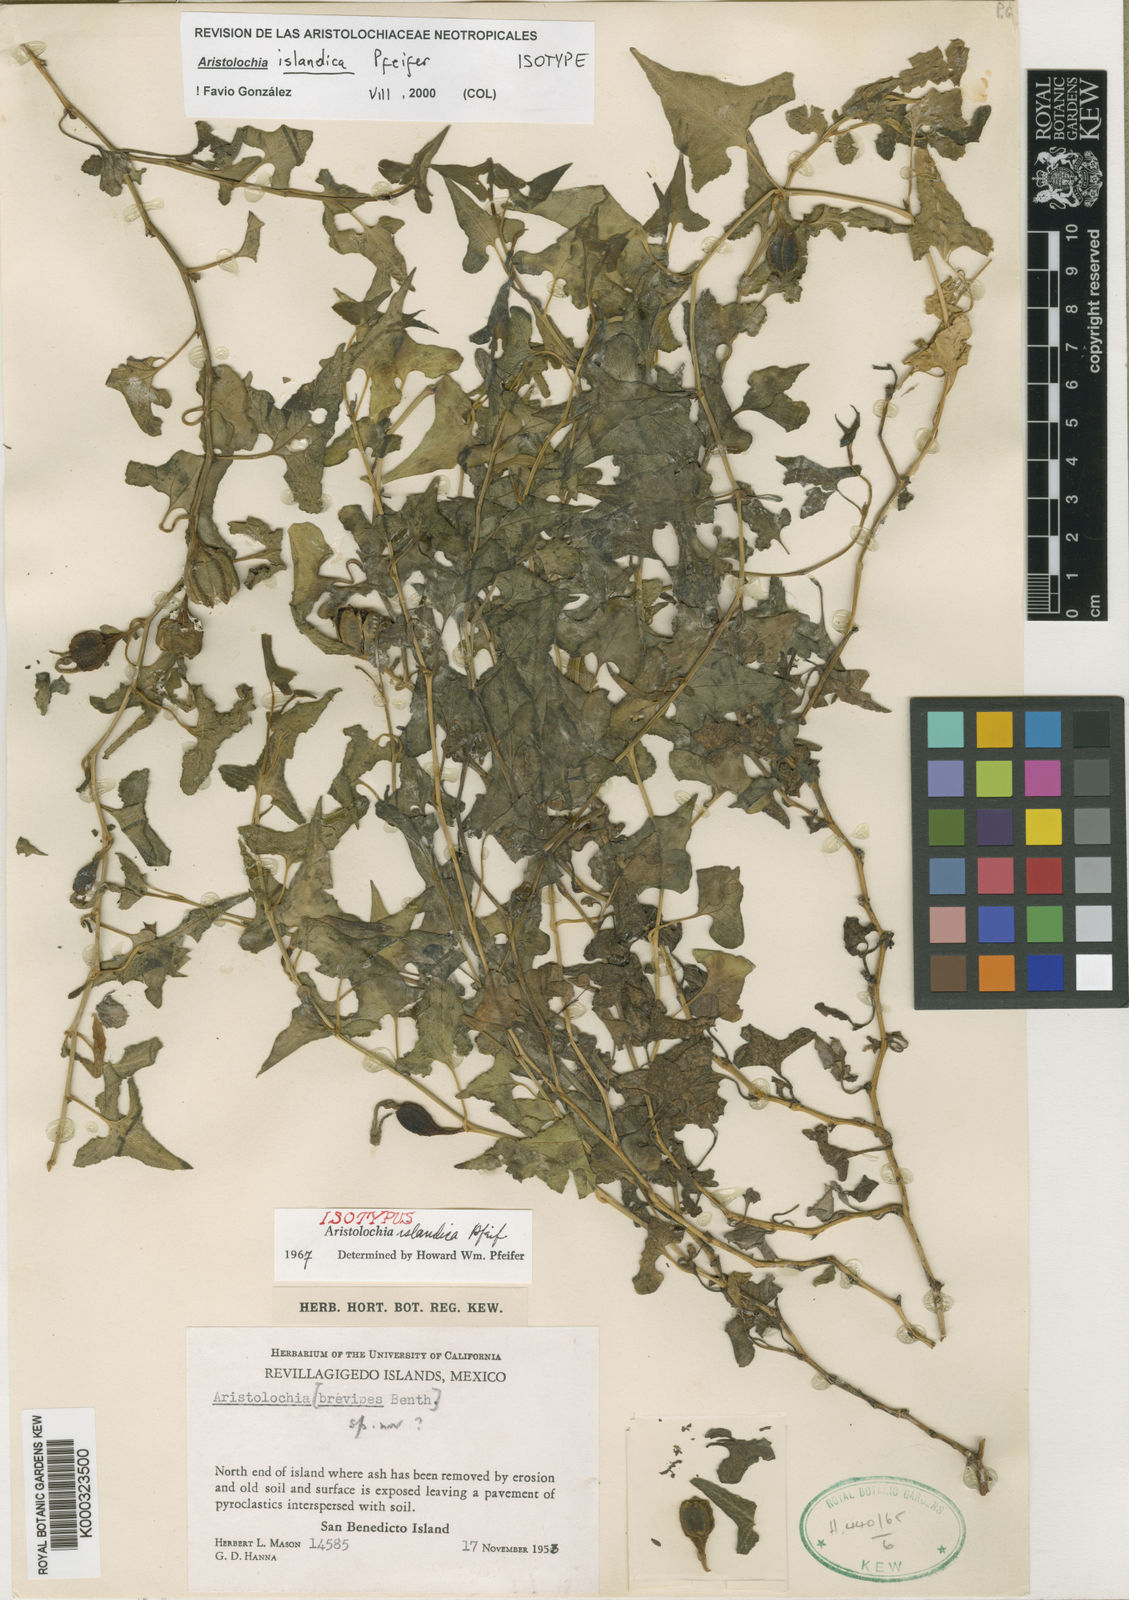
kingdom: Plantae
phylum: Tracheophyta
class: Magnoliopsida
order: Piperales
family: Aristolochiaceae
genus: Aristolochia
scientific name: Aristolochia islandica
